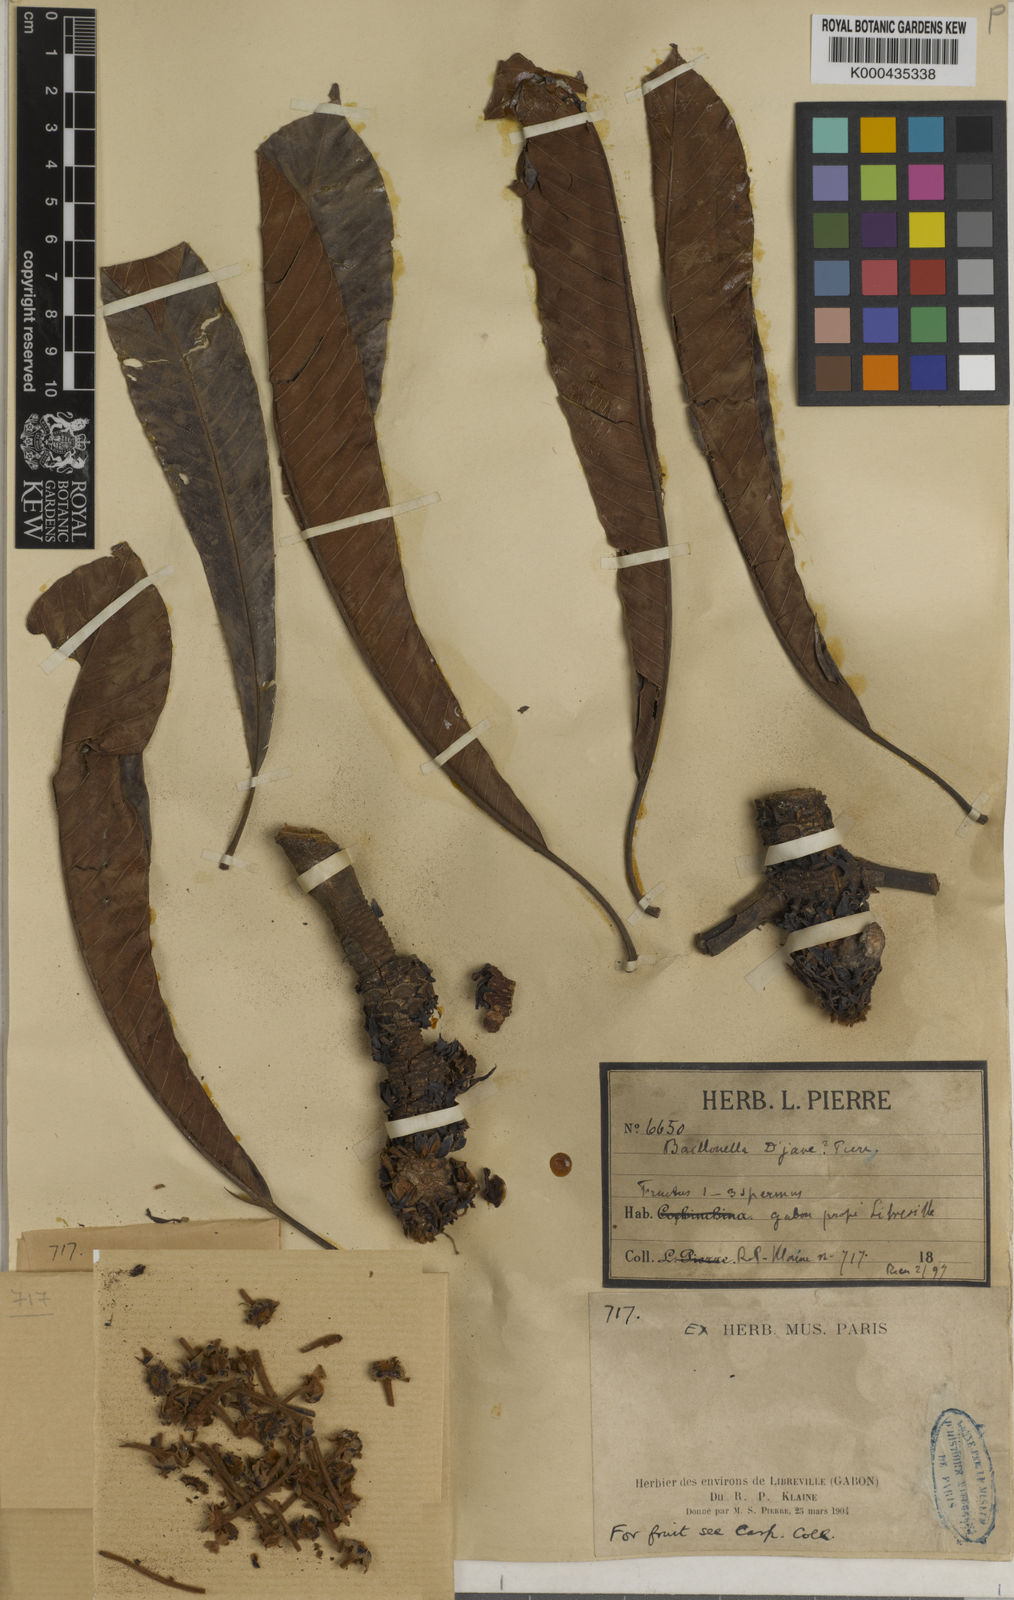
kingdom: Plantae
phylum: Tracheophyta
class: Magnoliopsida
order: Ericales
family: Sapotaceae
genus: Baillonella
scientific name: Baillonella toxisperma
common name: African pearwood
